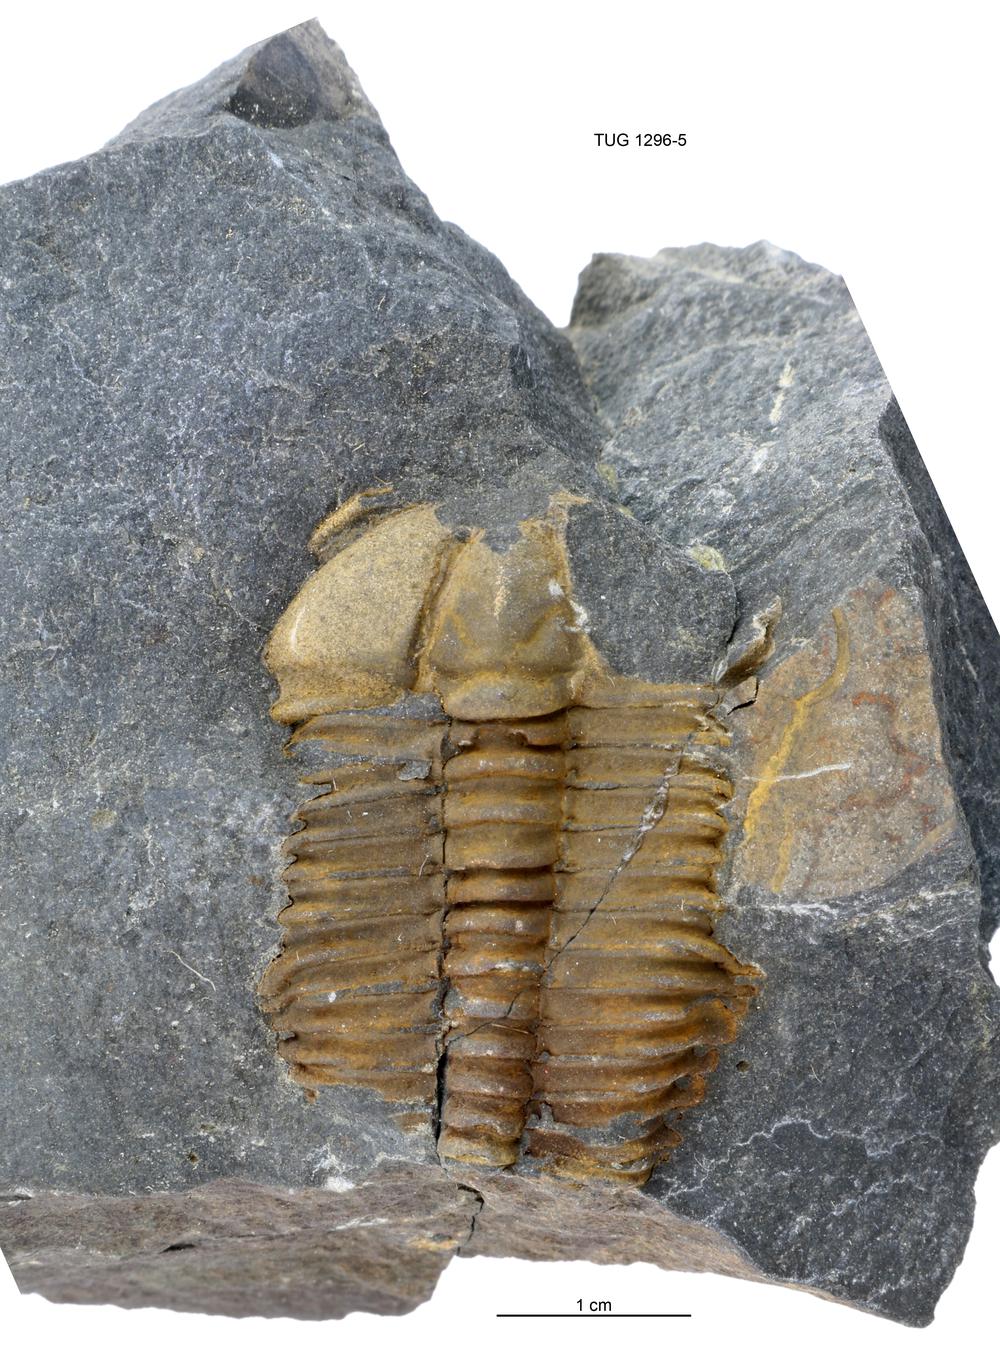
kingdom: Animalia
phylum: Arthropoda
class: Trilobita
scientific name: Trilobita
